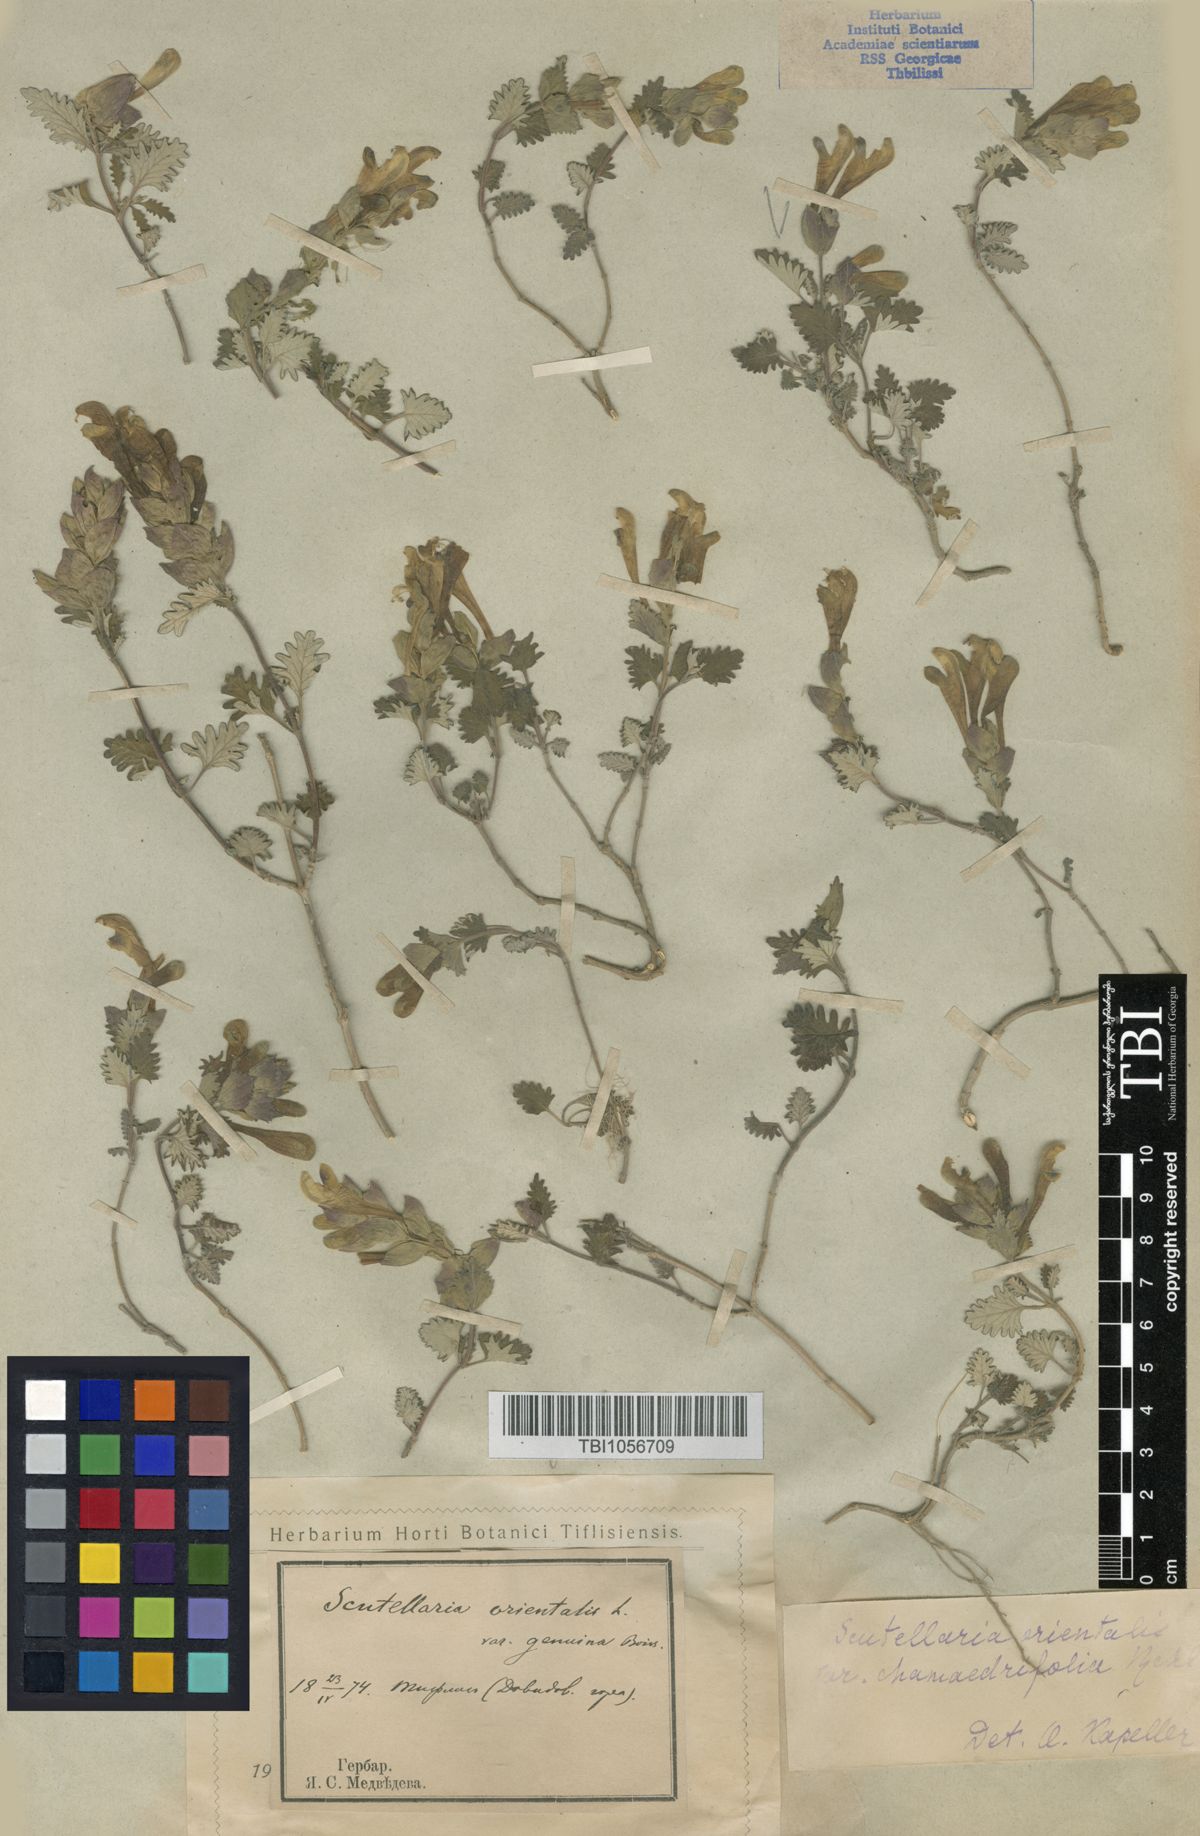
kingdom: Plantae
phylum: Tracheophyta
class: Magnoliopsida
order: Lamiales
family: Lamiaceae
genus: Scutellaria
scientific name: Scutellaria orientalis
